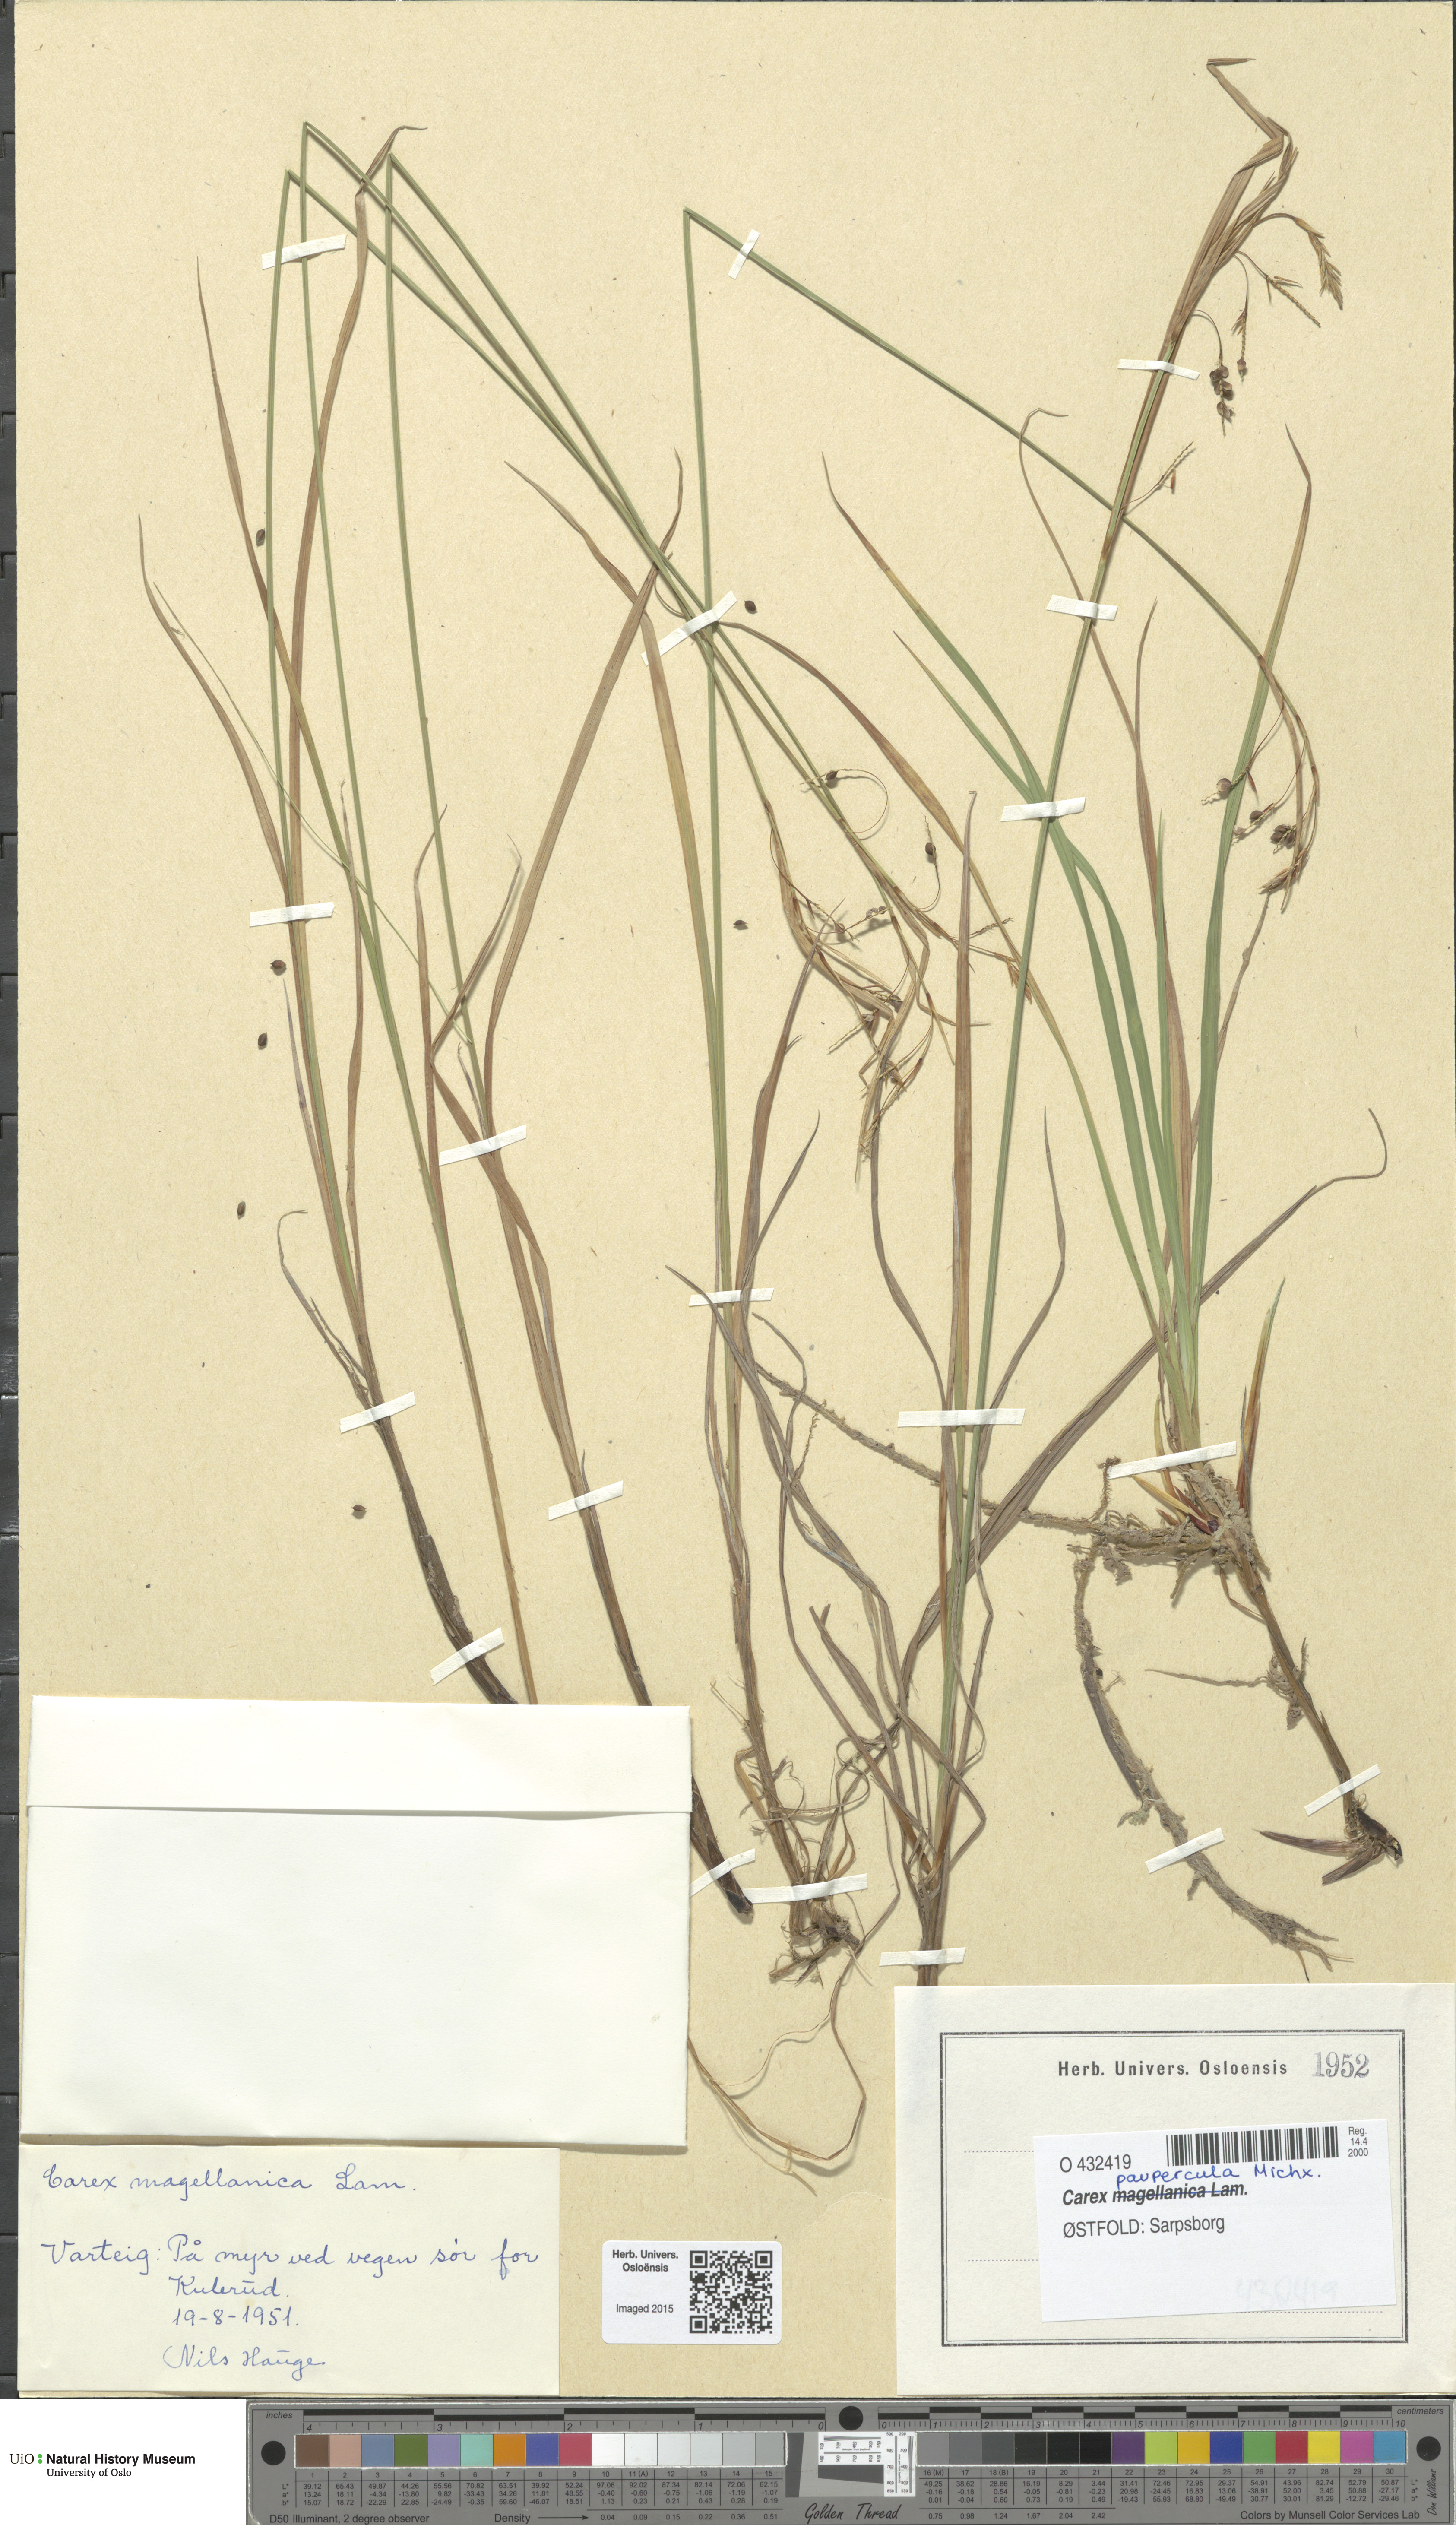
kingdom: Plantae
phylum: Tracheophyta
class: Liliopsida
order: Poales
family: Cyperaceae
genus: Carex
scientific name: Carex magellanica
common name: Bog sedge
